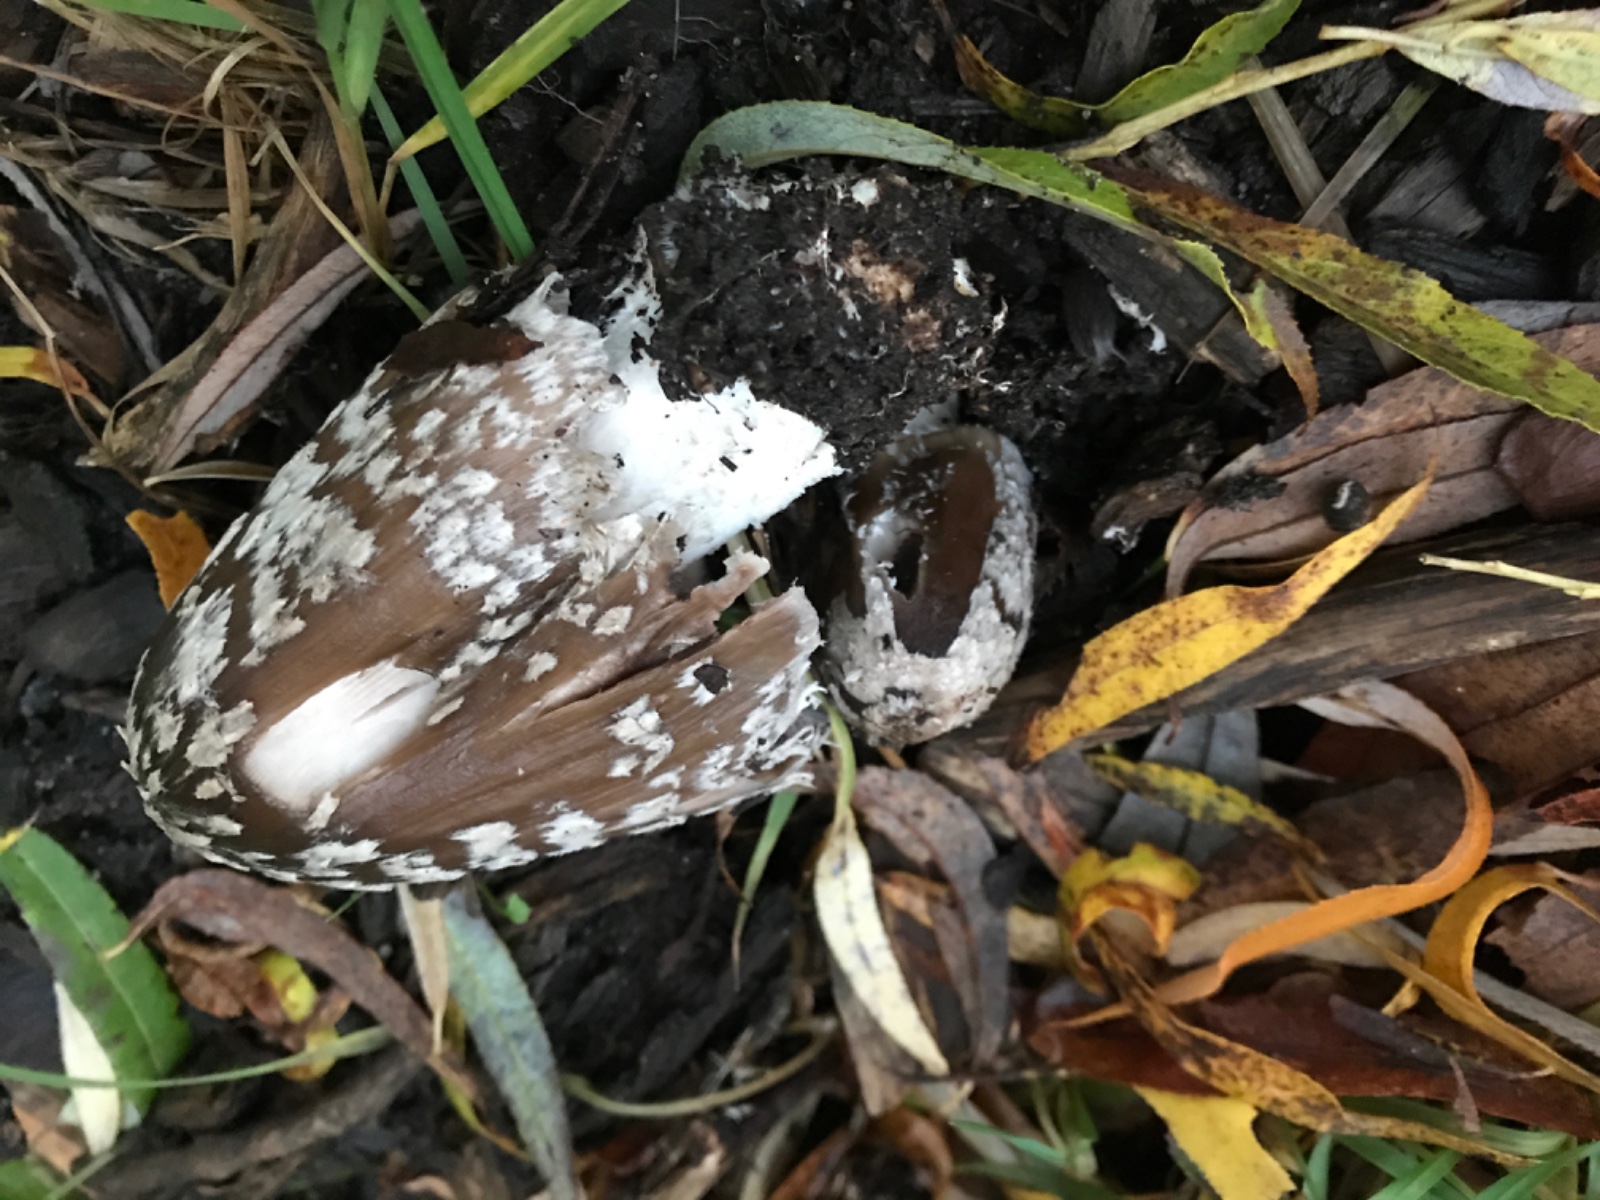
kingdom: Fungi
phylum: Basidiomycota
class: Agaricomycetes
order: Agaricales
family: Psathyrellaceae
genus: Coprinopsis
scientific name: Coprinopsis picacea
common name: skade-blækhat
